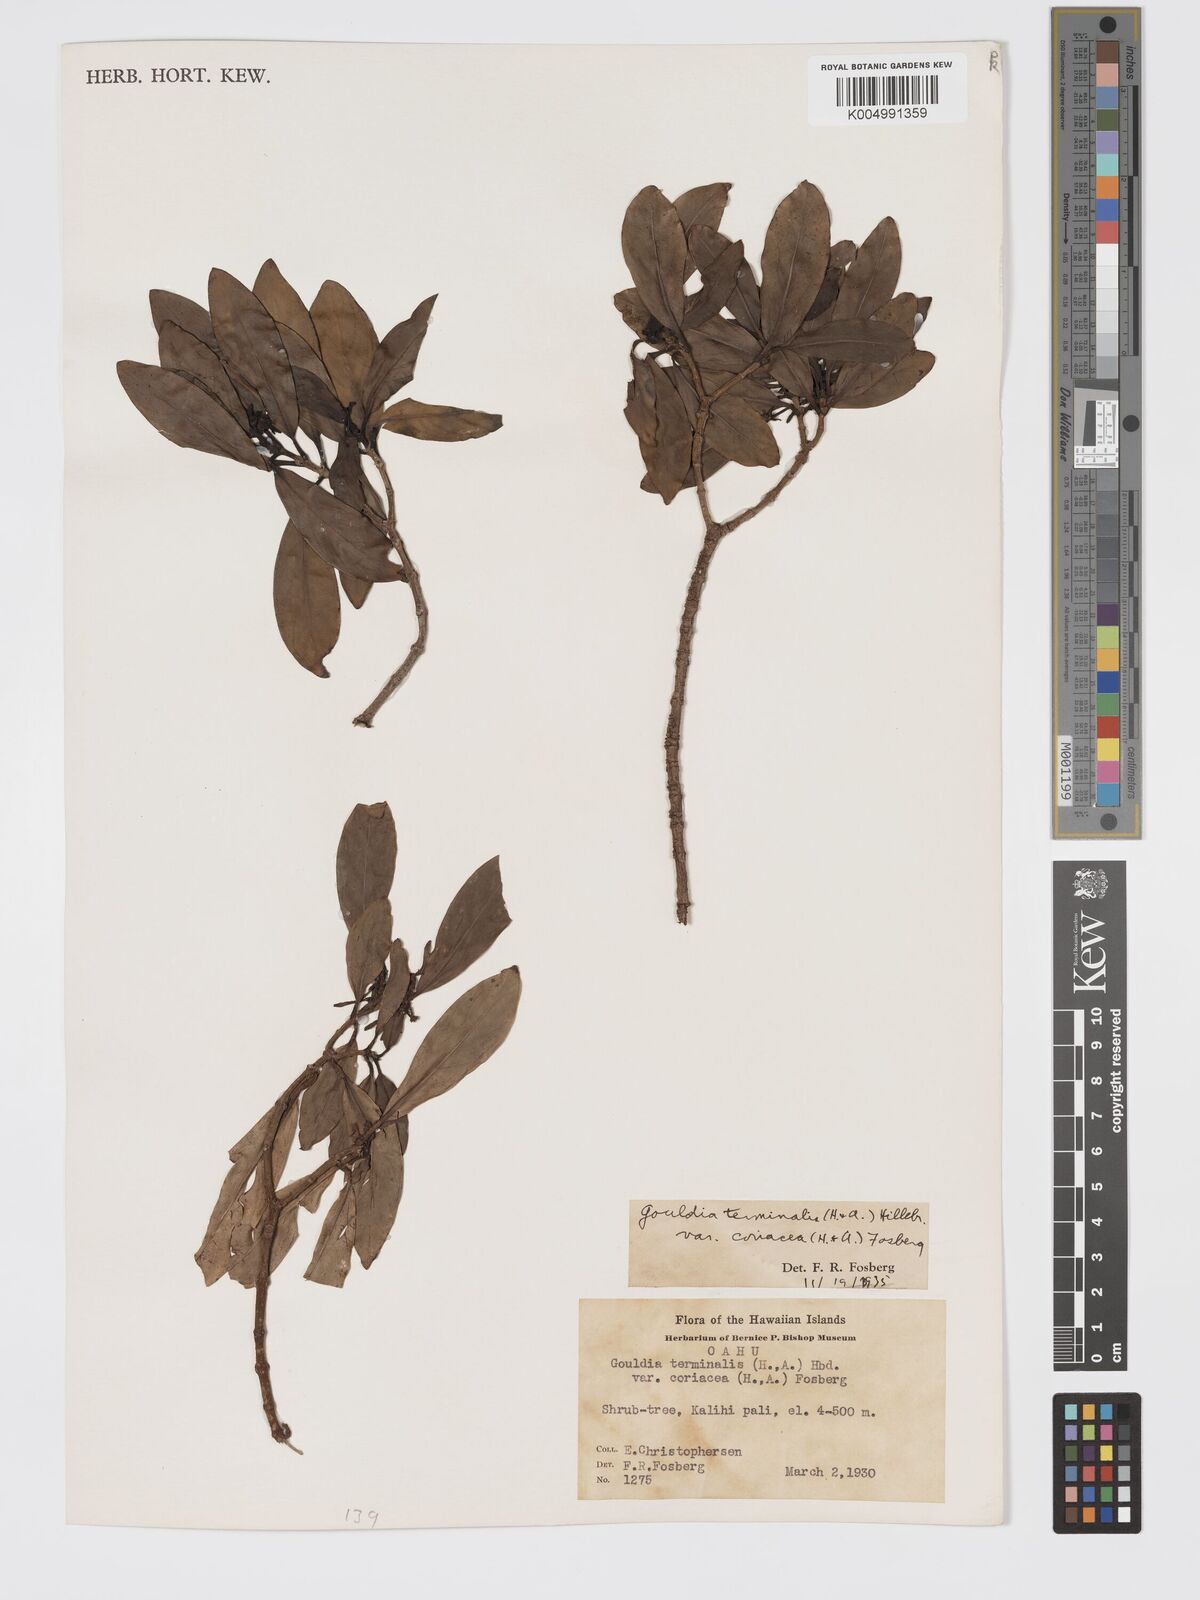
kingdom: Plantae
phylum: Tracheophyta
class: Magnoliopsida
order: Gentianales
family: Rubiaceae
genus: Kadua
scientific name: Kadua affinis
